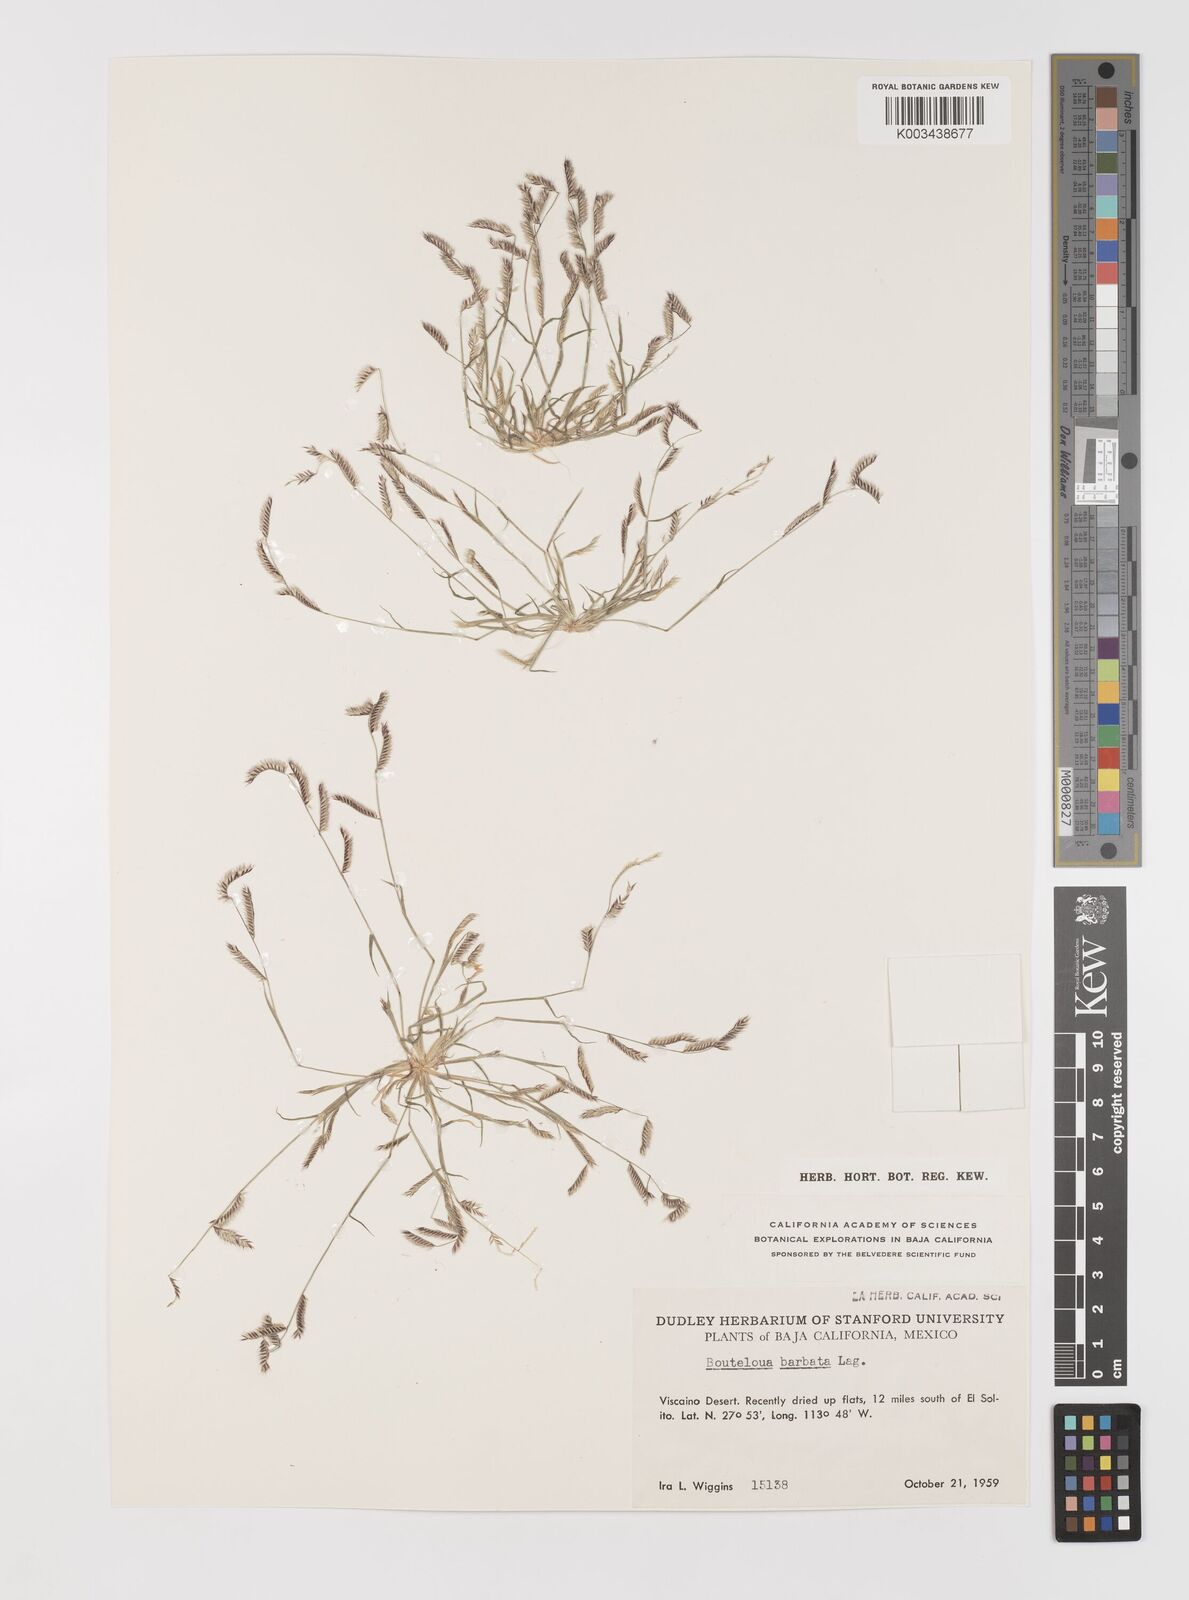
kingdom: Plantae
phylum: Tracheophyta
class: Liliopsida
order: Poales
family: Poaceae
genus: Bouteloua
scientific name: Bouteloua
